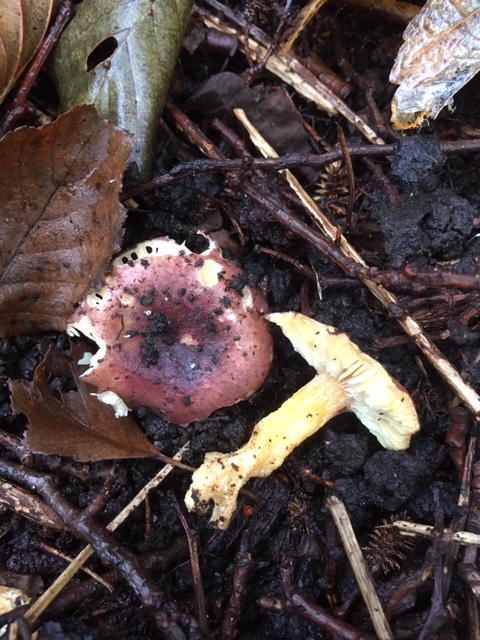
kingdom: Fungi
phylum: Basidiomycota
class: Agaricomycetes
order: Russulales
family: Russulaceae
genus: Russula
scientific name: Russula alnetorum
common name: elle-skørhat
